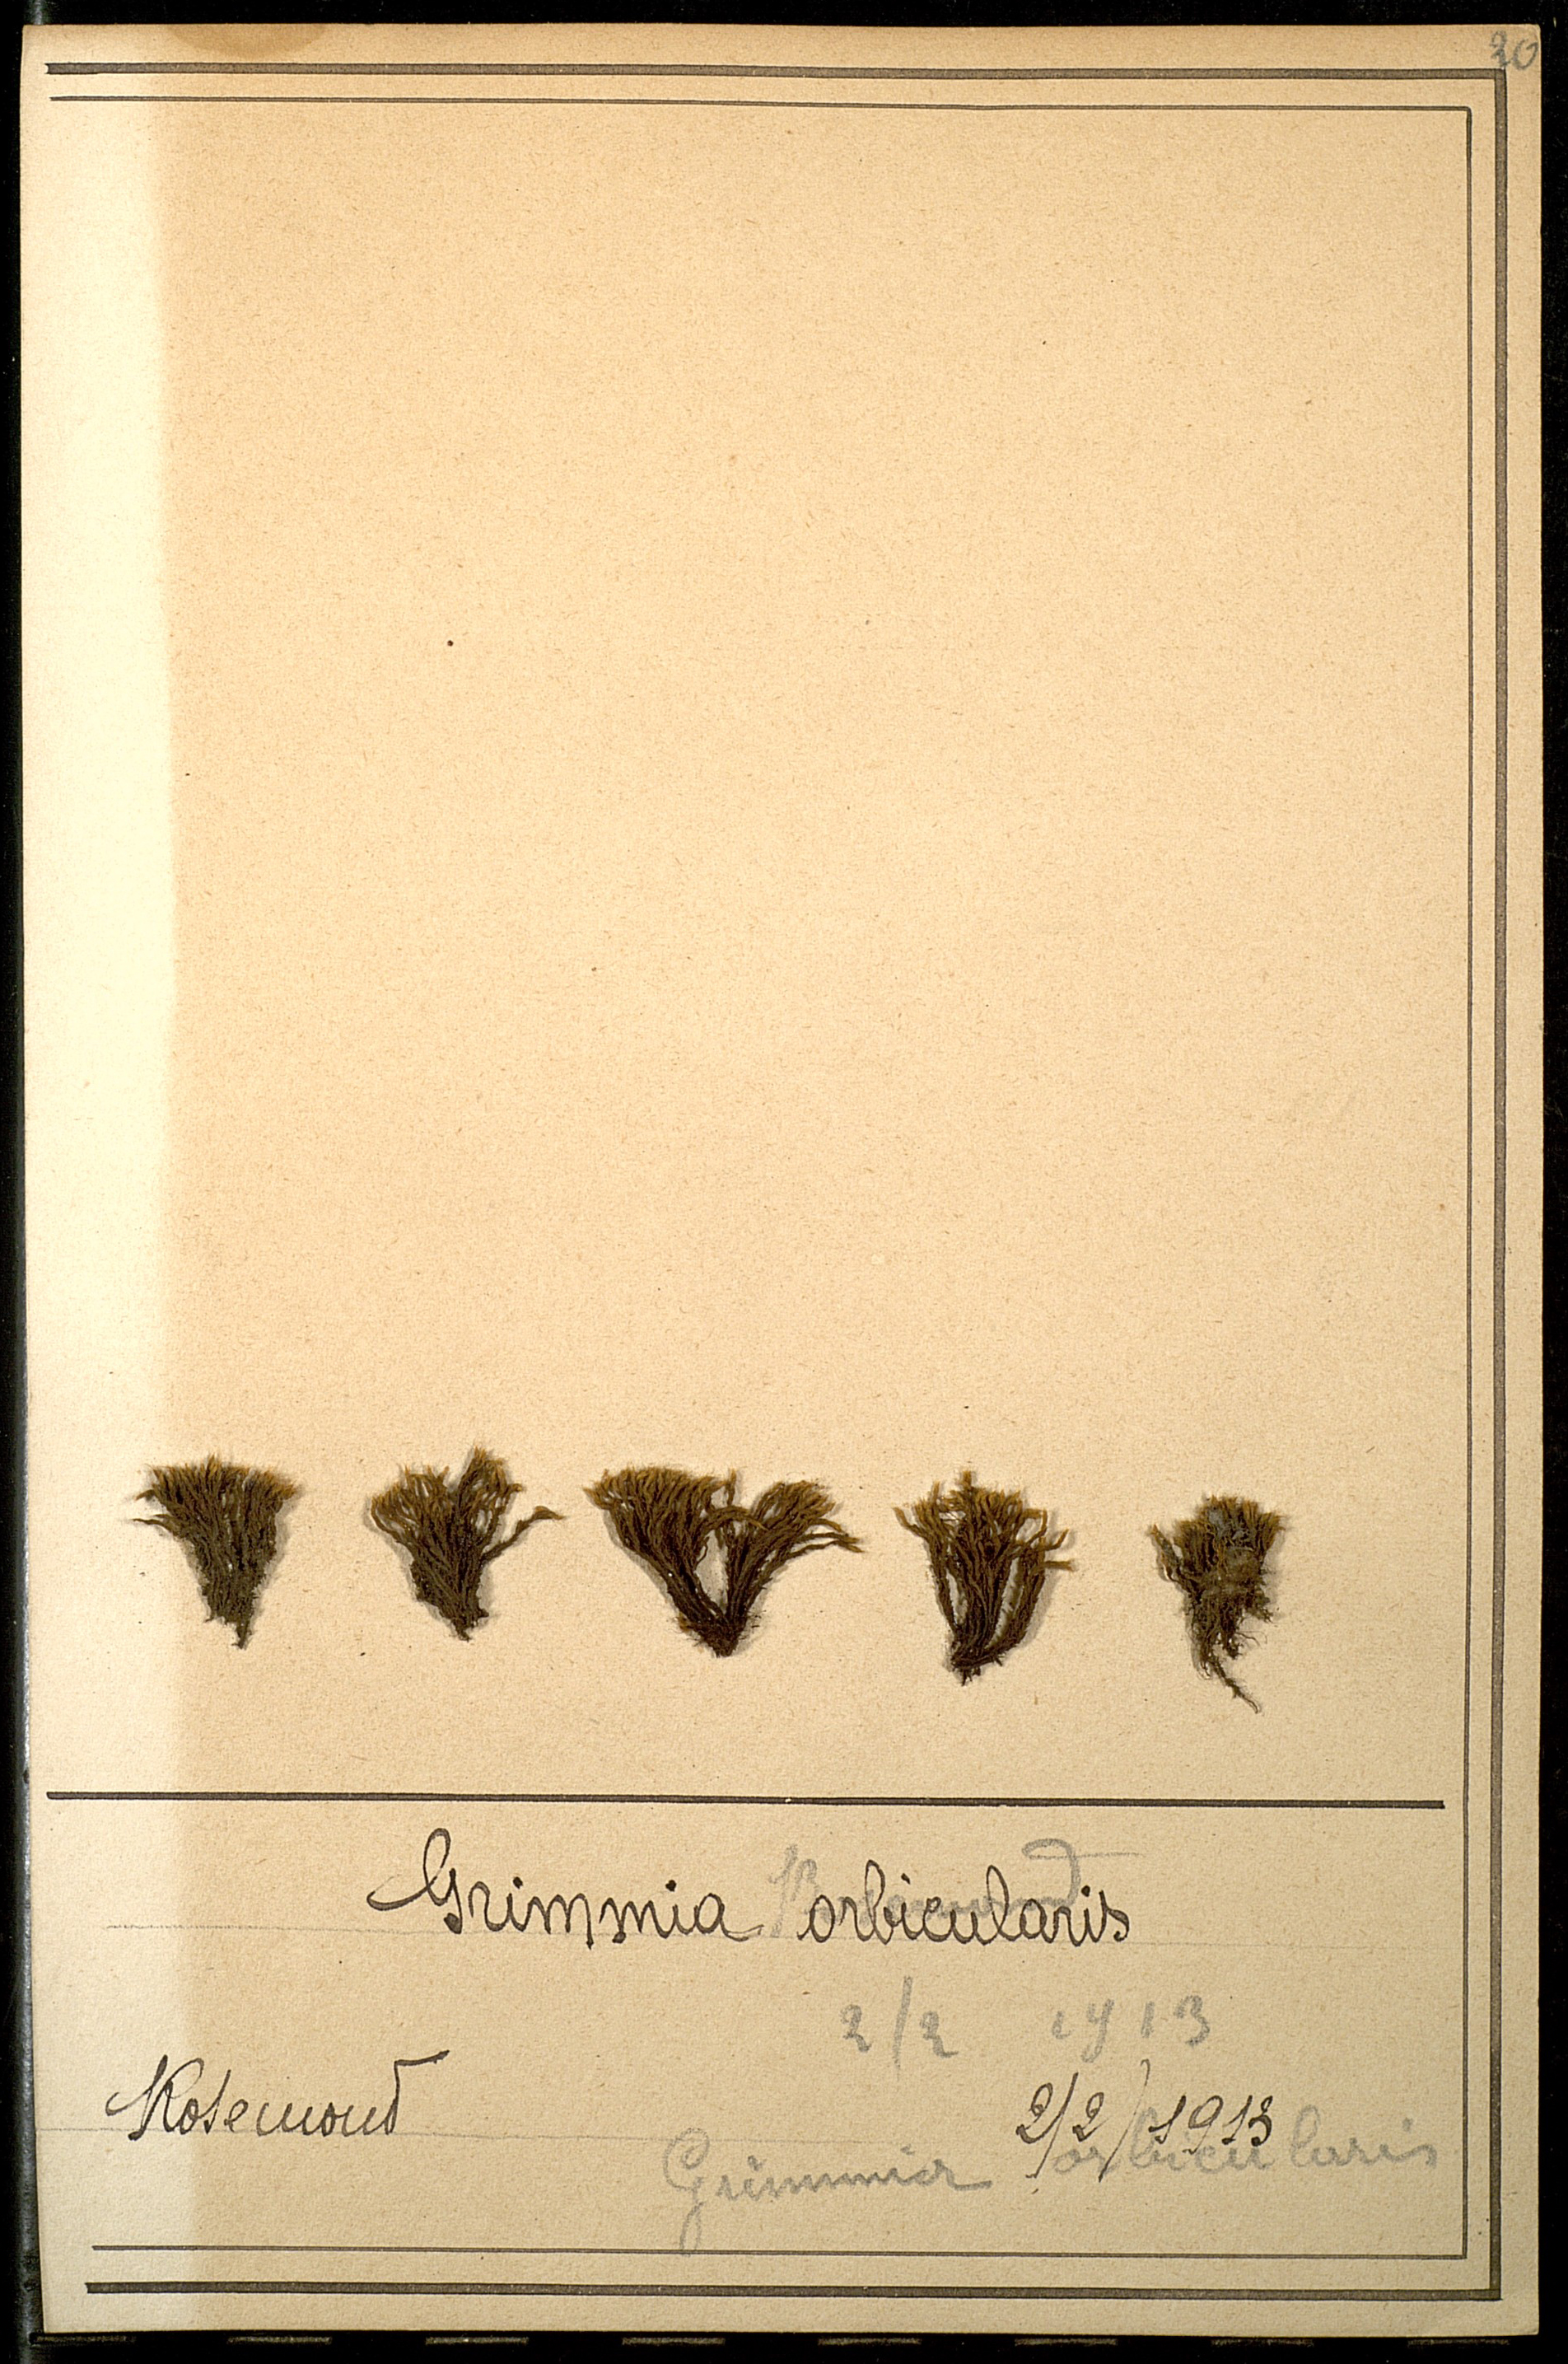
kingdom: Plantae
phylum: Bryophyta
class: Bryopsida
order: Grimmiales
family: Grimmiaceae
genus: Grimmia
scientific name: Grimmia orbicularis
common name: Round-fruited grimmia
